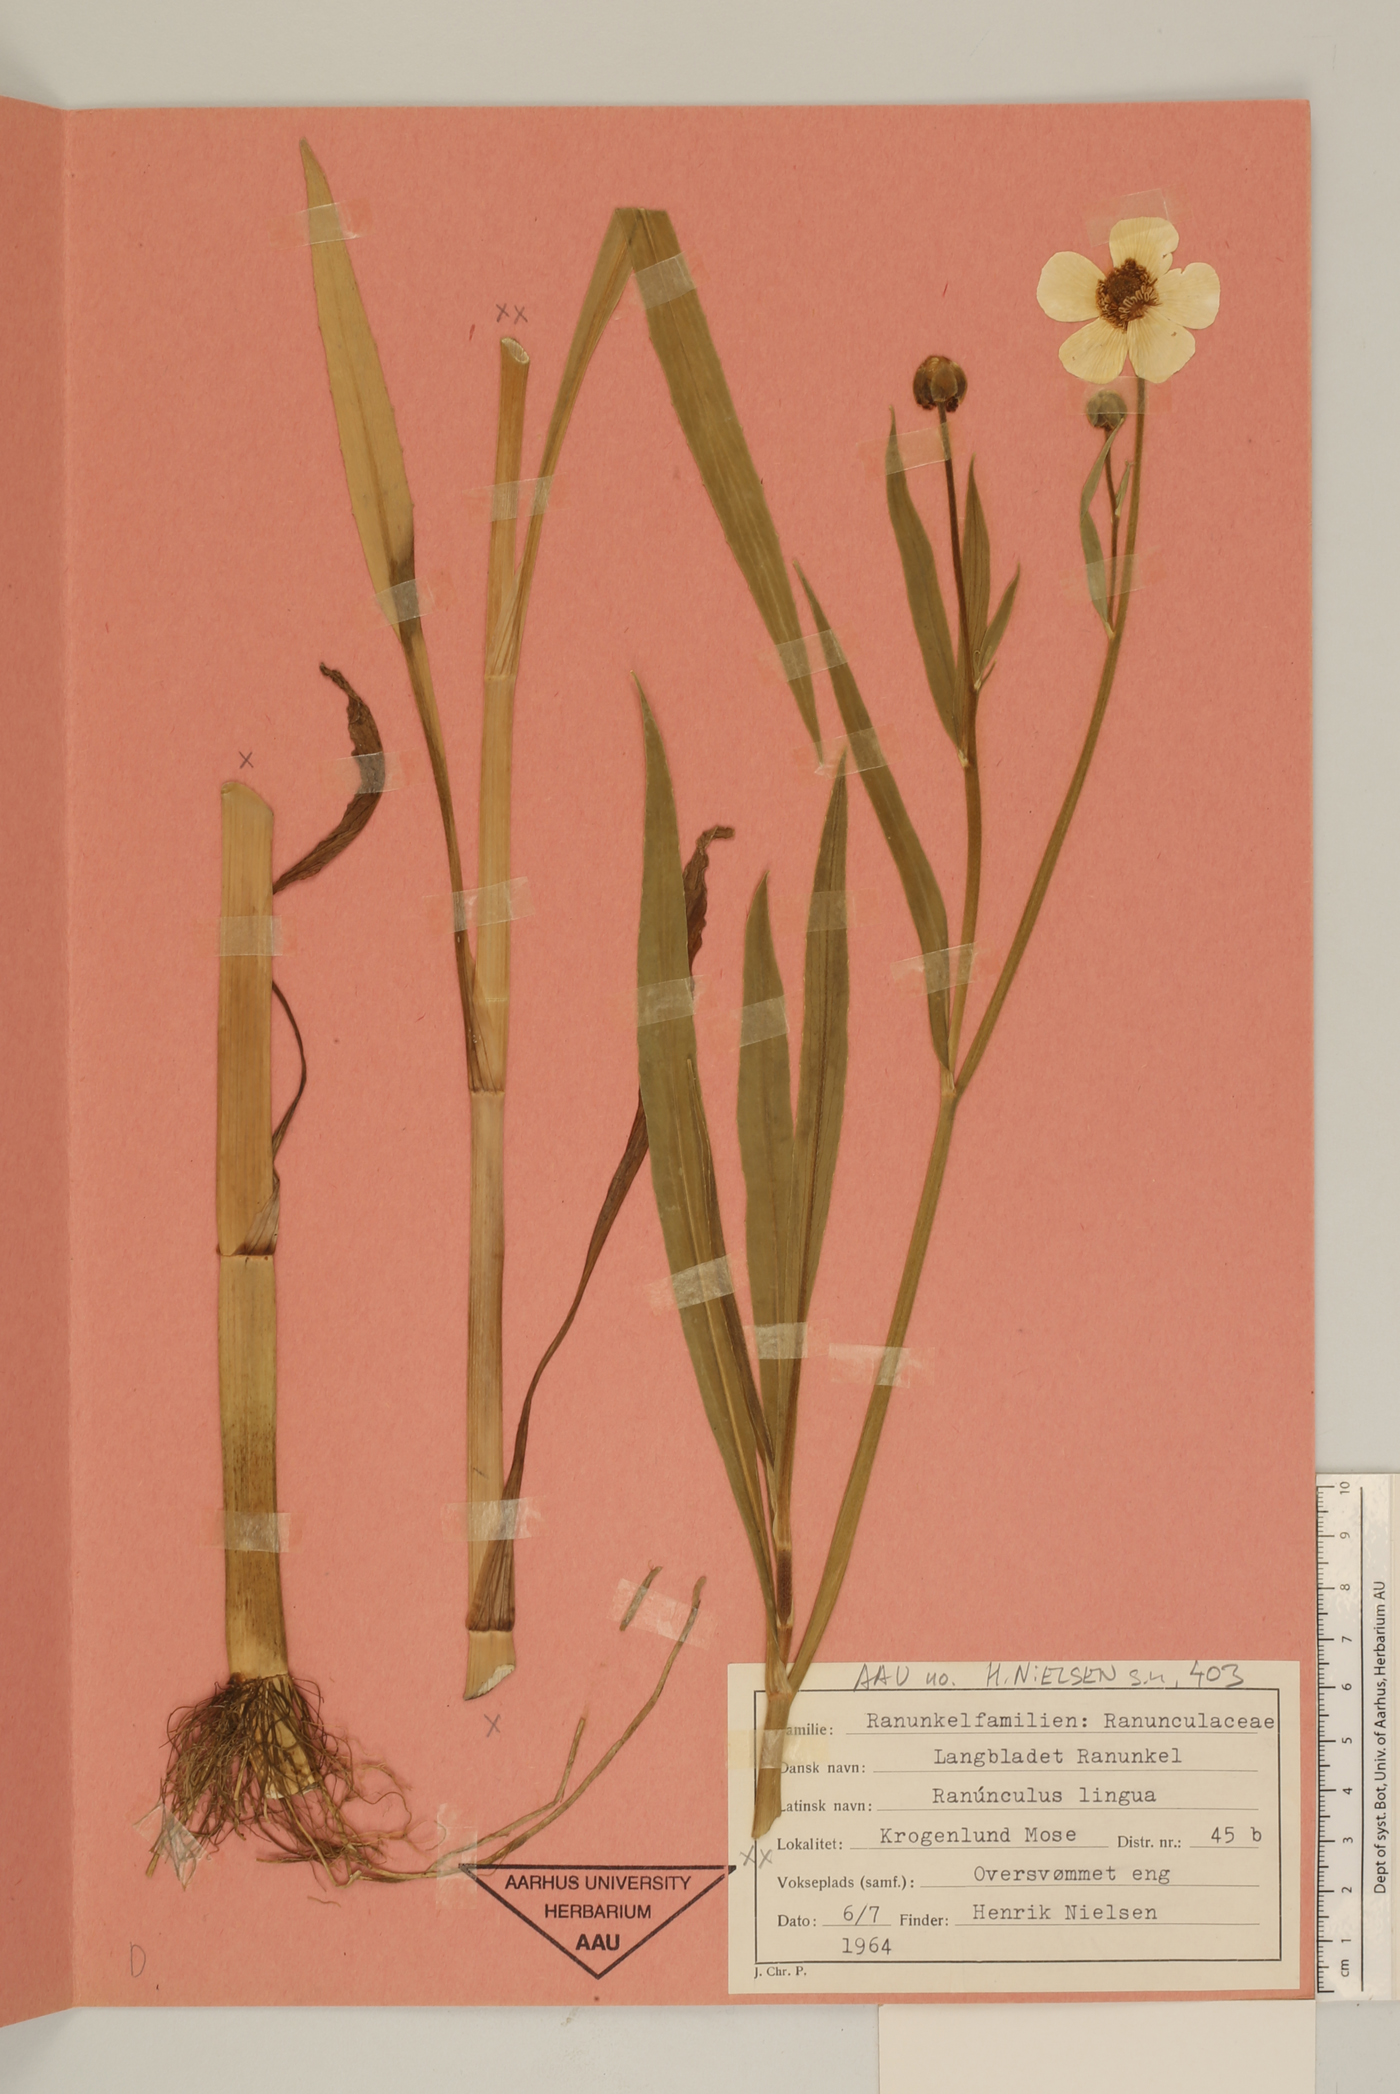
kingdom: Plantae
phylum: Tracheophyta
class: Magnoliopsida
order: Ranunculales
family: Ranunculaceae
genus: Ranunculus
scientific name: Ranunculus lingua
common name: Greater spearwort
